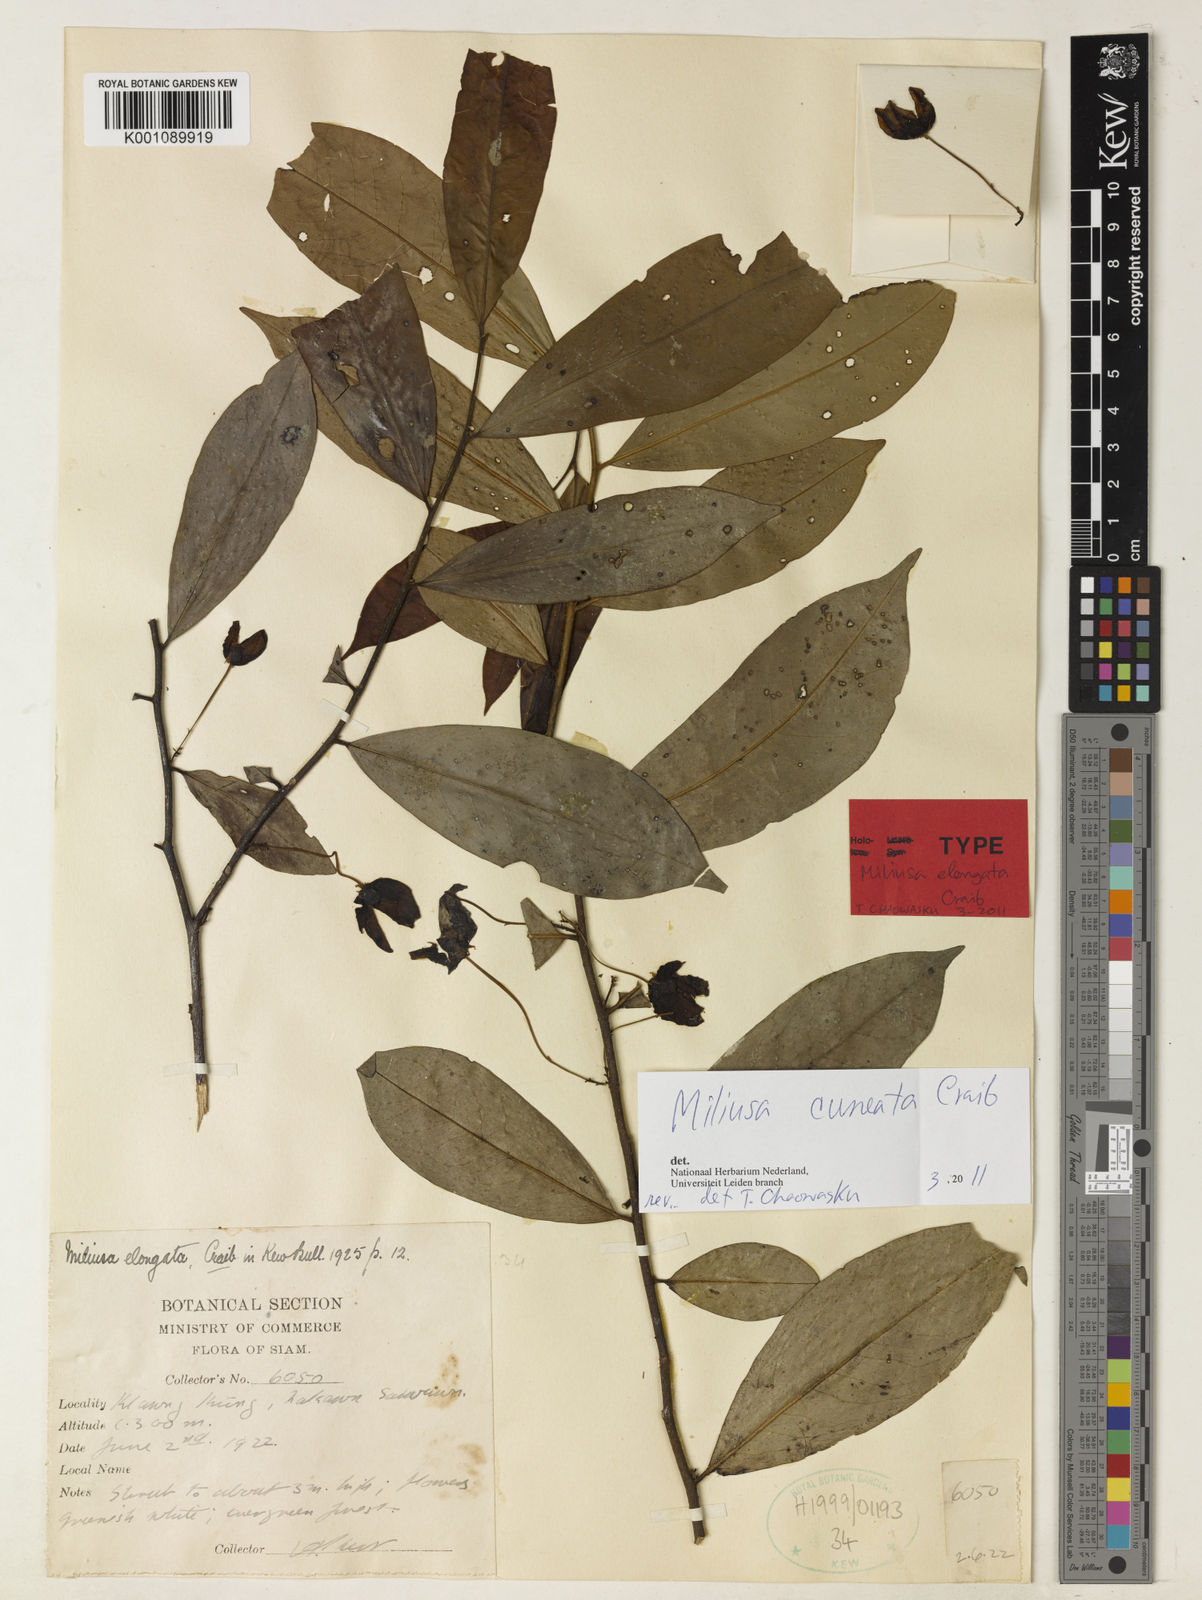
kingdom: Plantae
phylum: Tracheophyta
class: Magnoliopsida
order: Magnoliales
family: Annonaceae
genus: Miliusa
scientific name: Miliusa elongata
